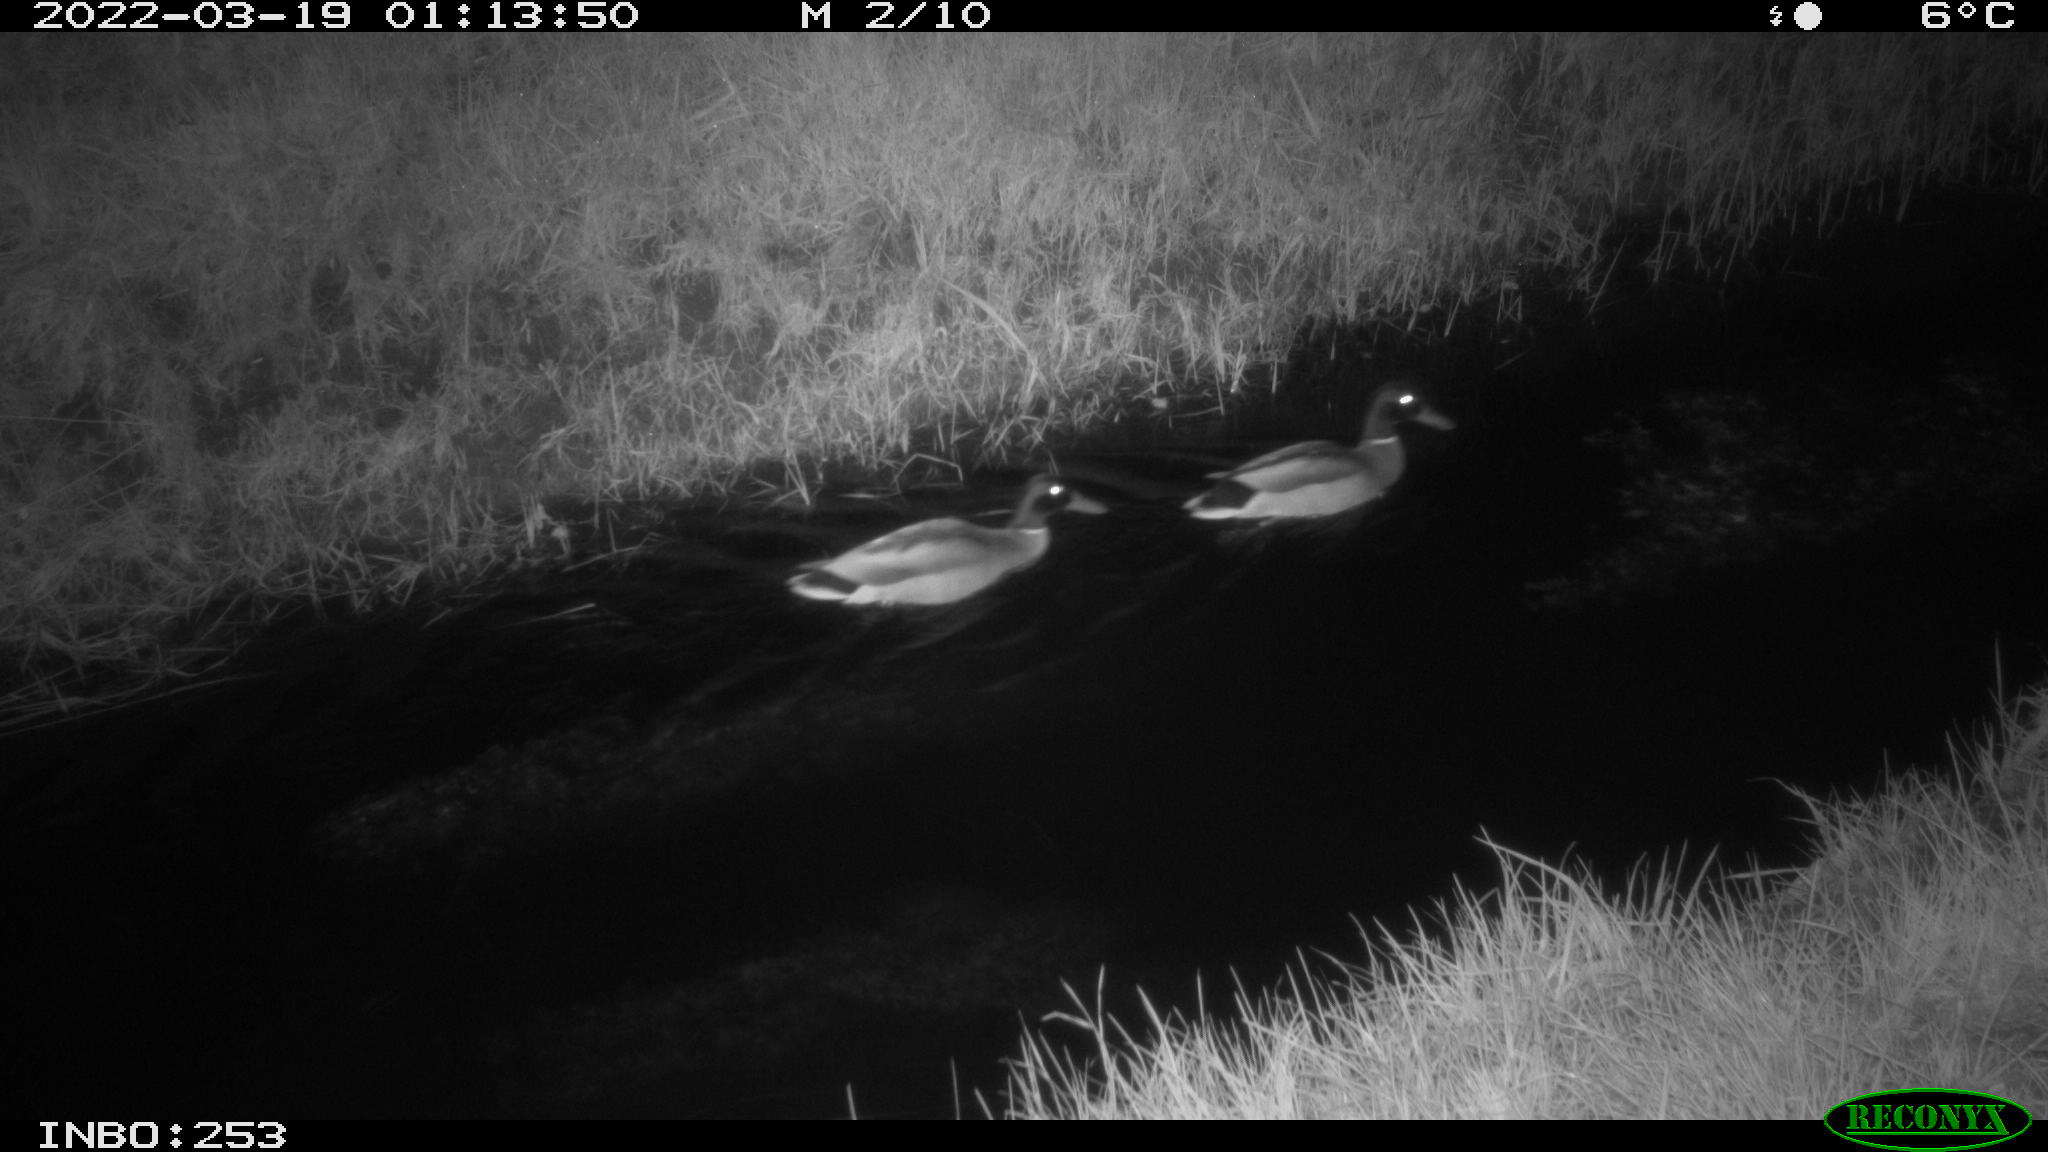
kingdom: Animalia
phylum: Chordata
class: Aves
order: Anseriformes
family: Anatidae
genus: Anas
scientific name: Anas platyrhynchos
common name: Mallard
